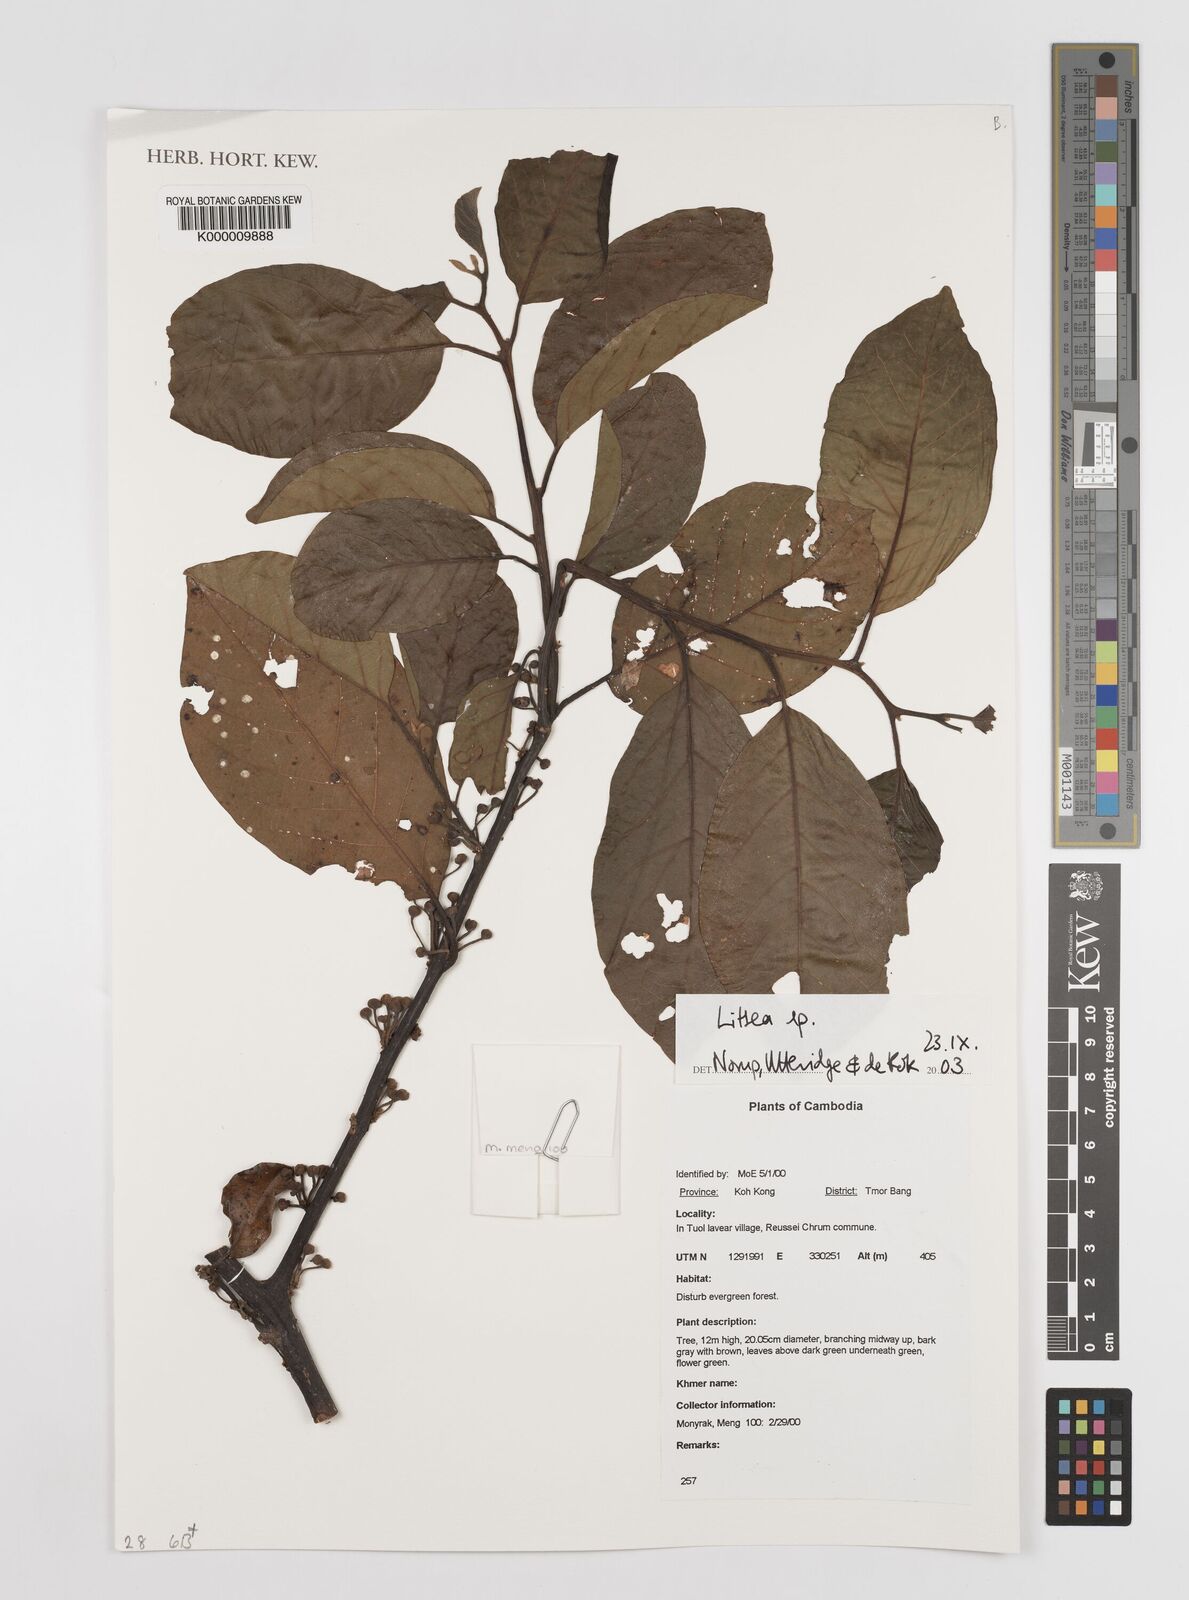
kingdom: Plantae
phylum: Tracheophyta
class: Magnoliopsida
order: Laurales
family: Lauraceae
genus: Litsea
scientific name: Litsea
